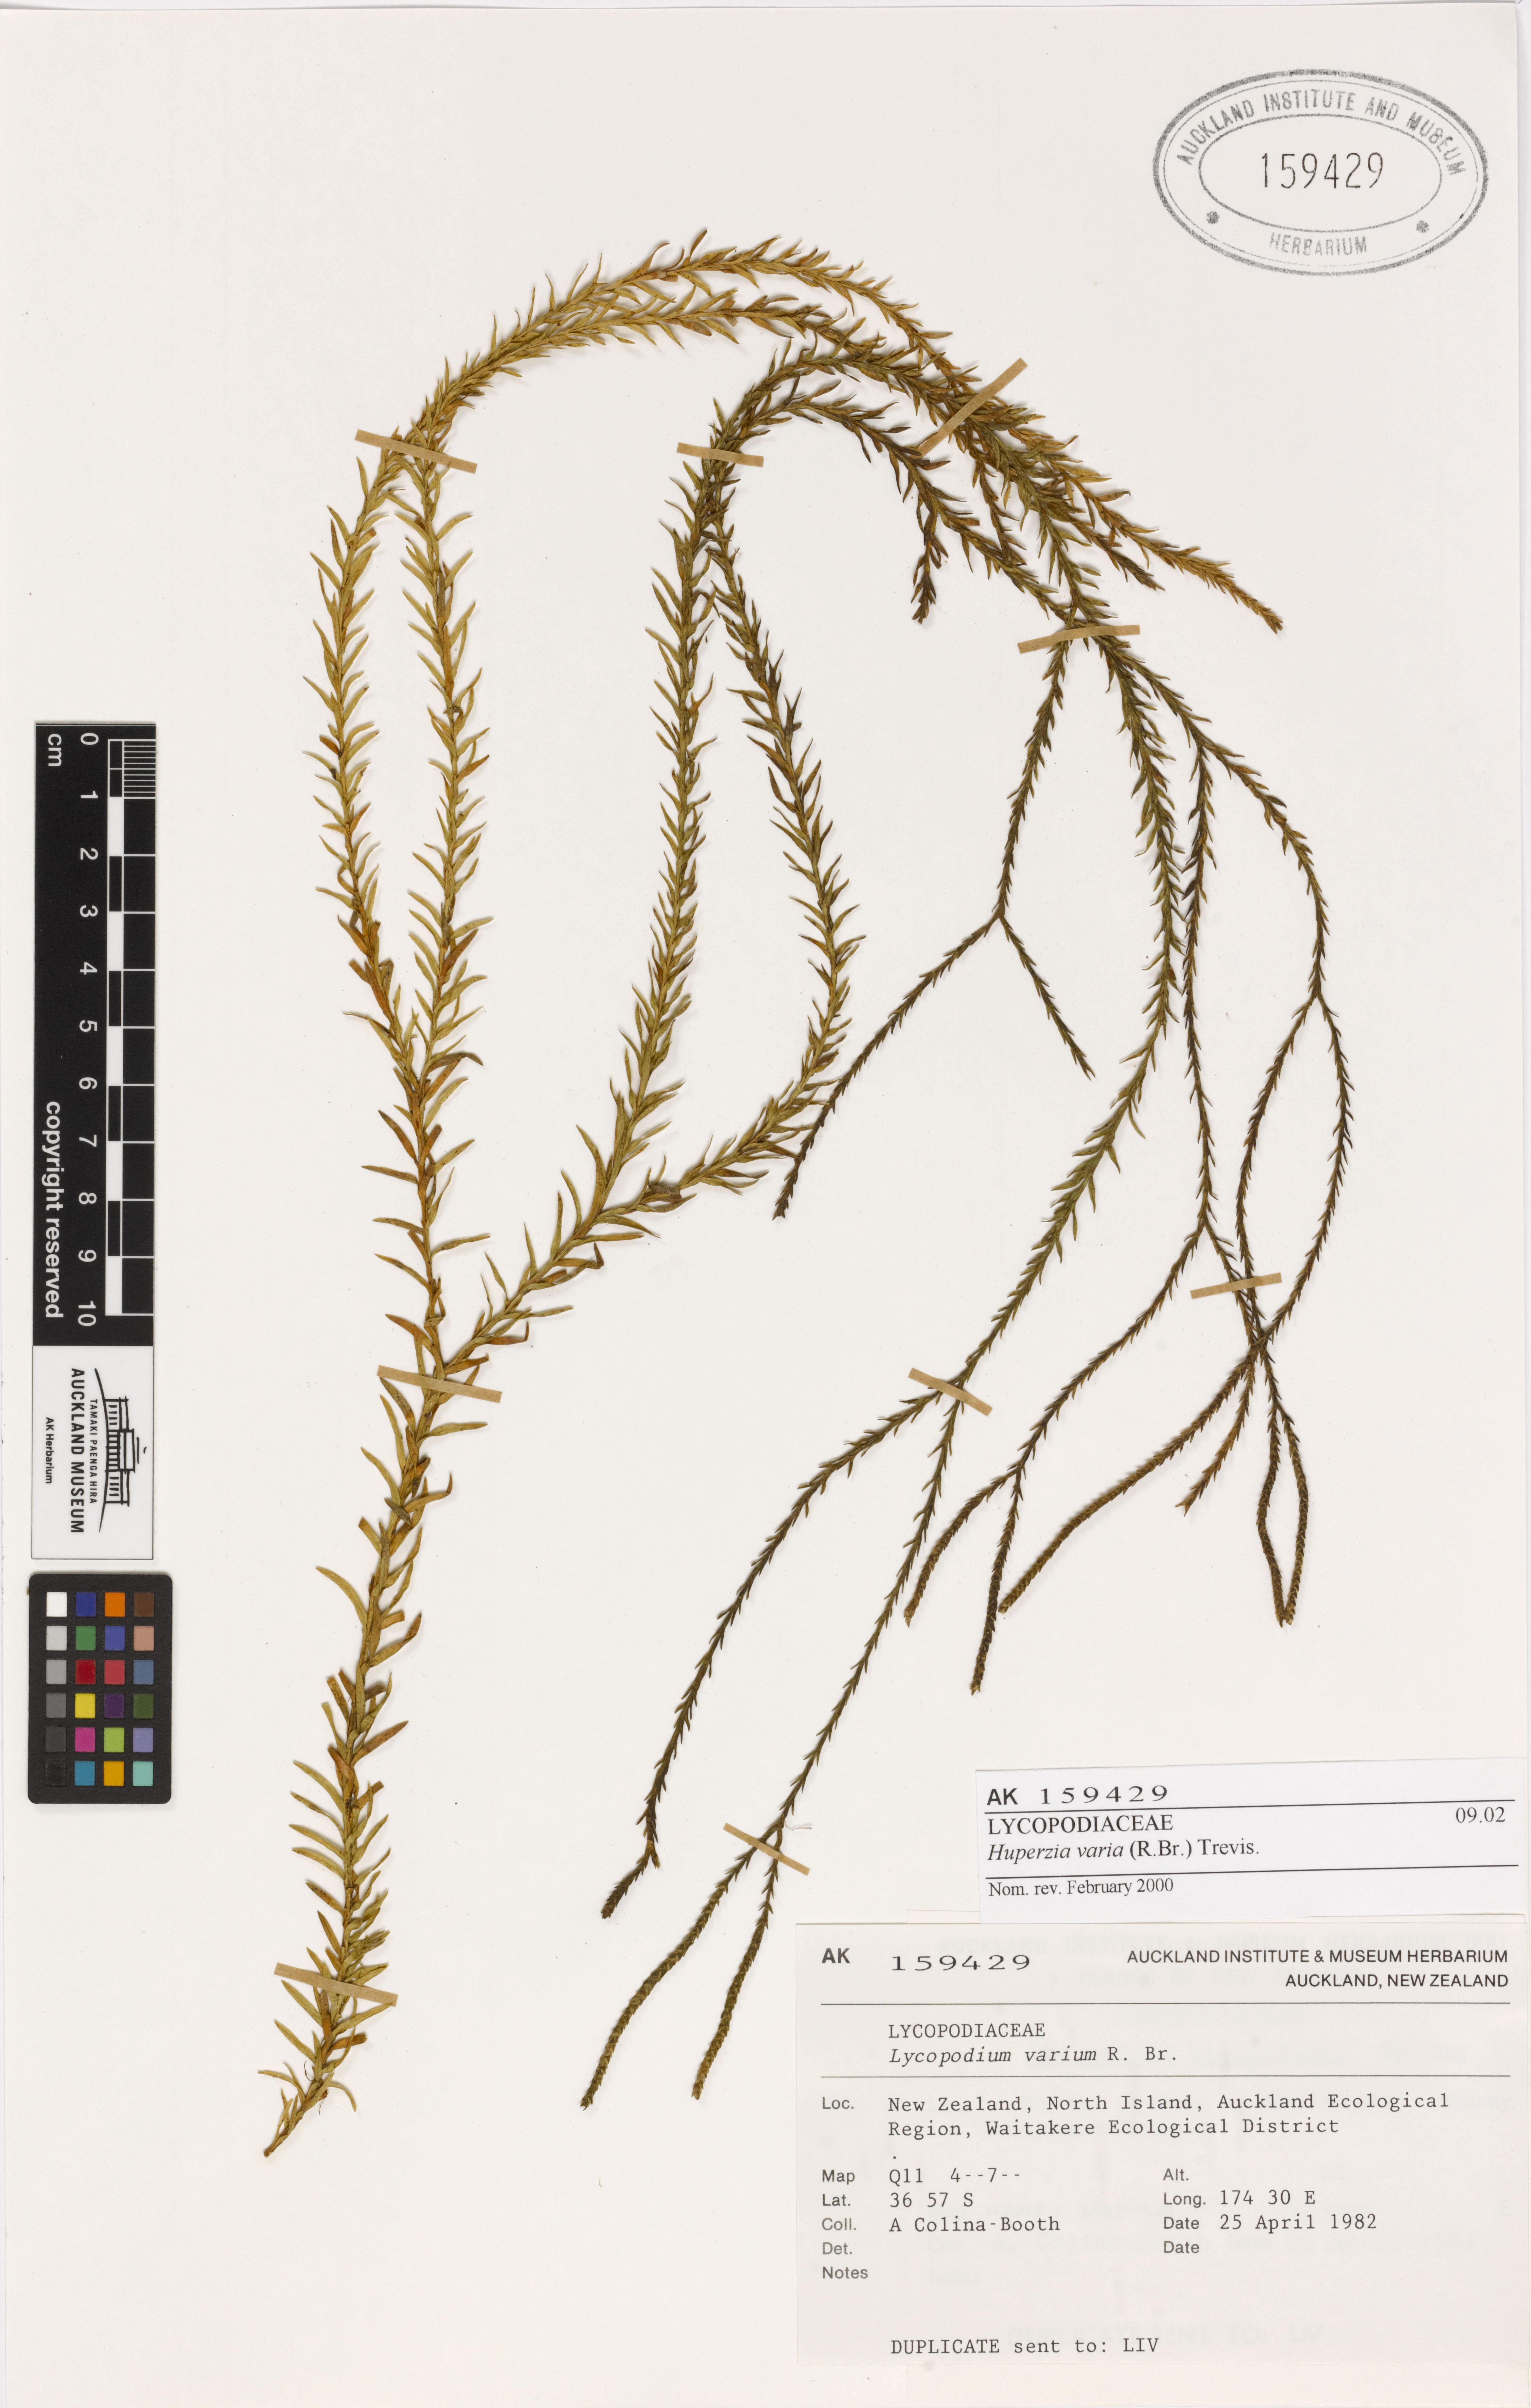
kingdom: Plantae
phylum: Tracheophyta
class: Lycopodiopsida
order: Lycopodiales
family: Lycopodiaceae
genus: Phlegmariurus
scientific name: Phlegmariurus billardierei
